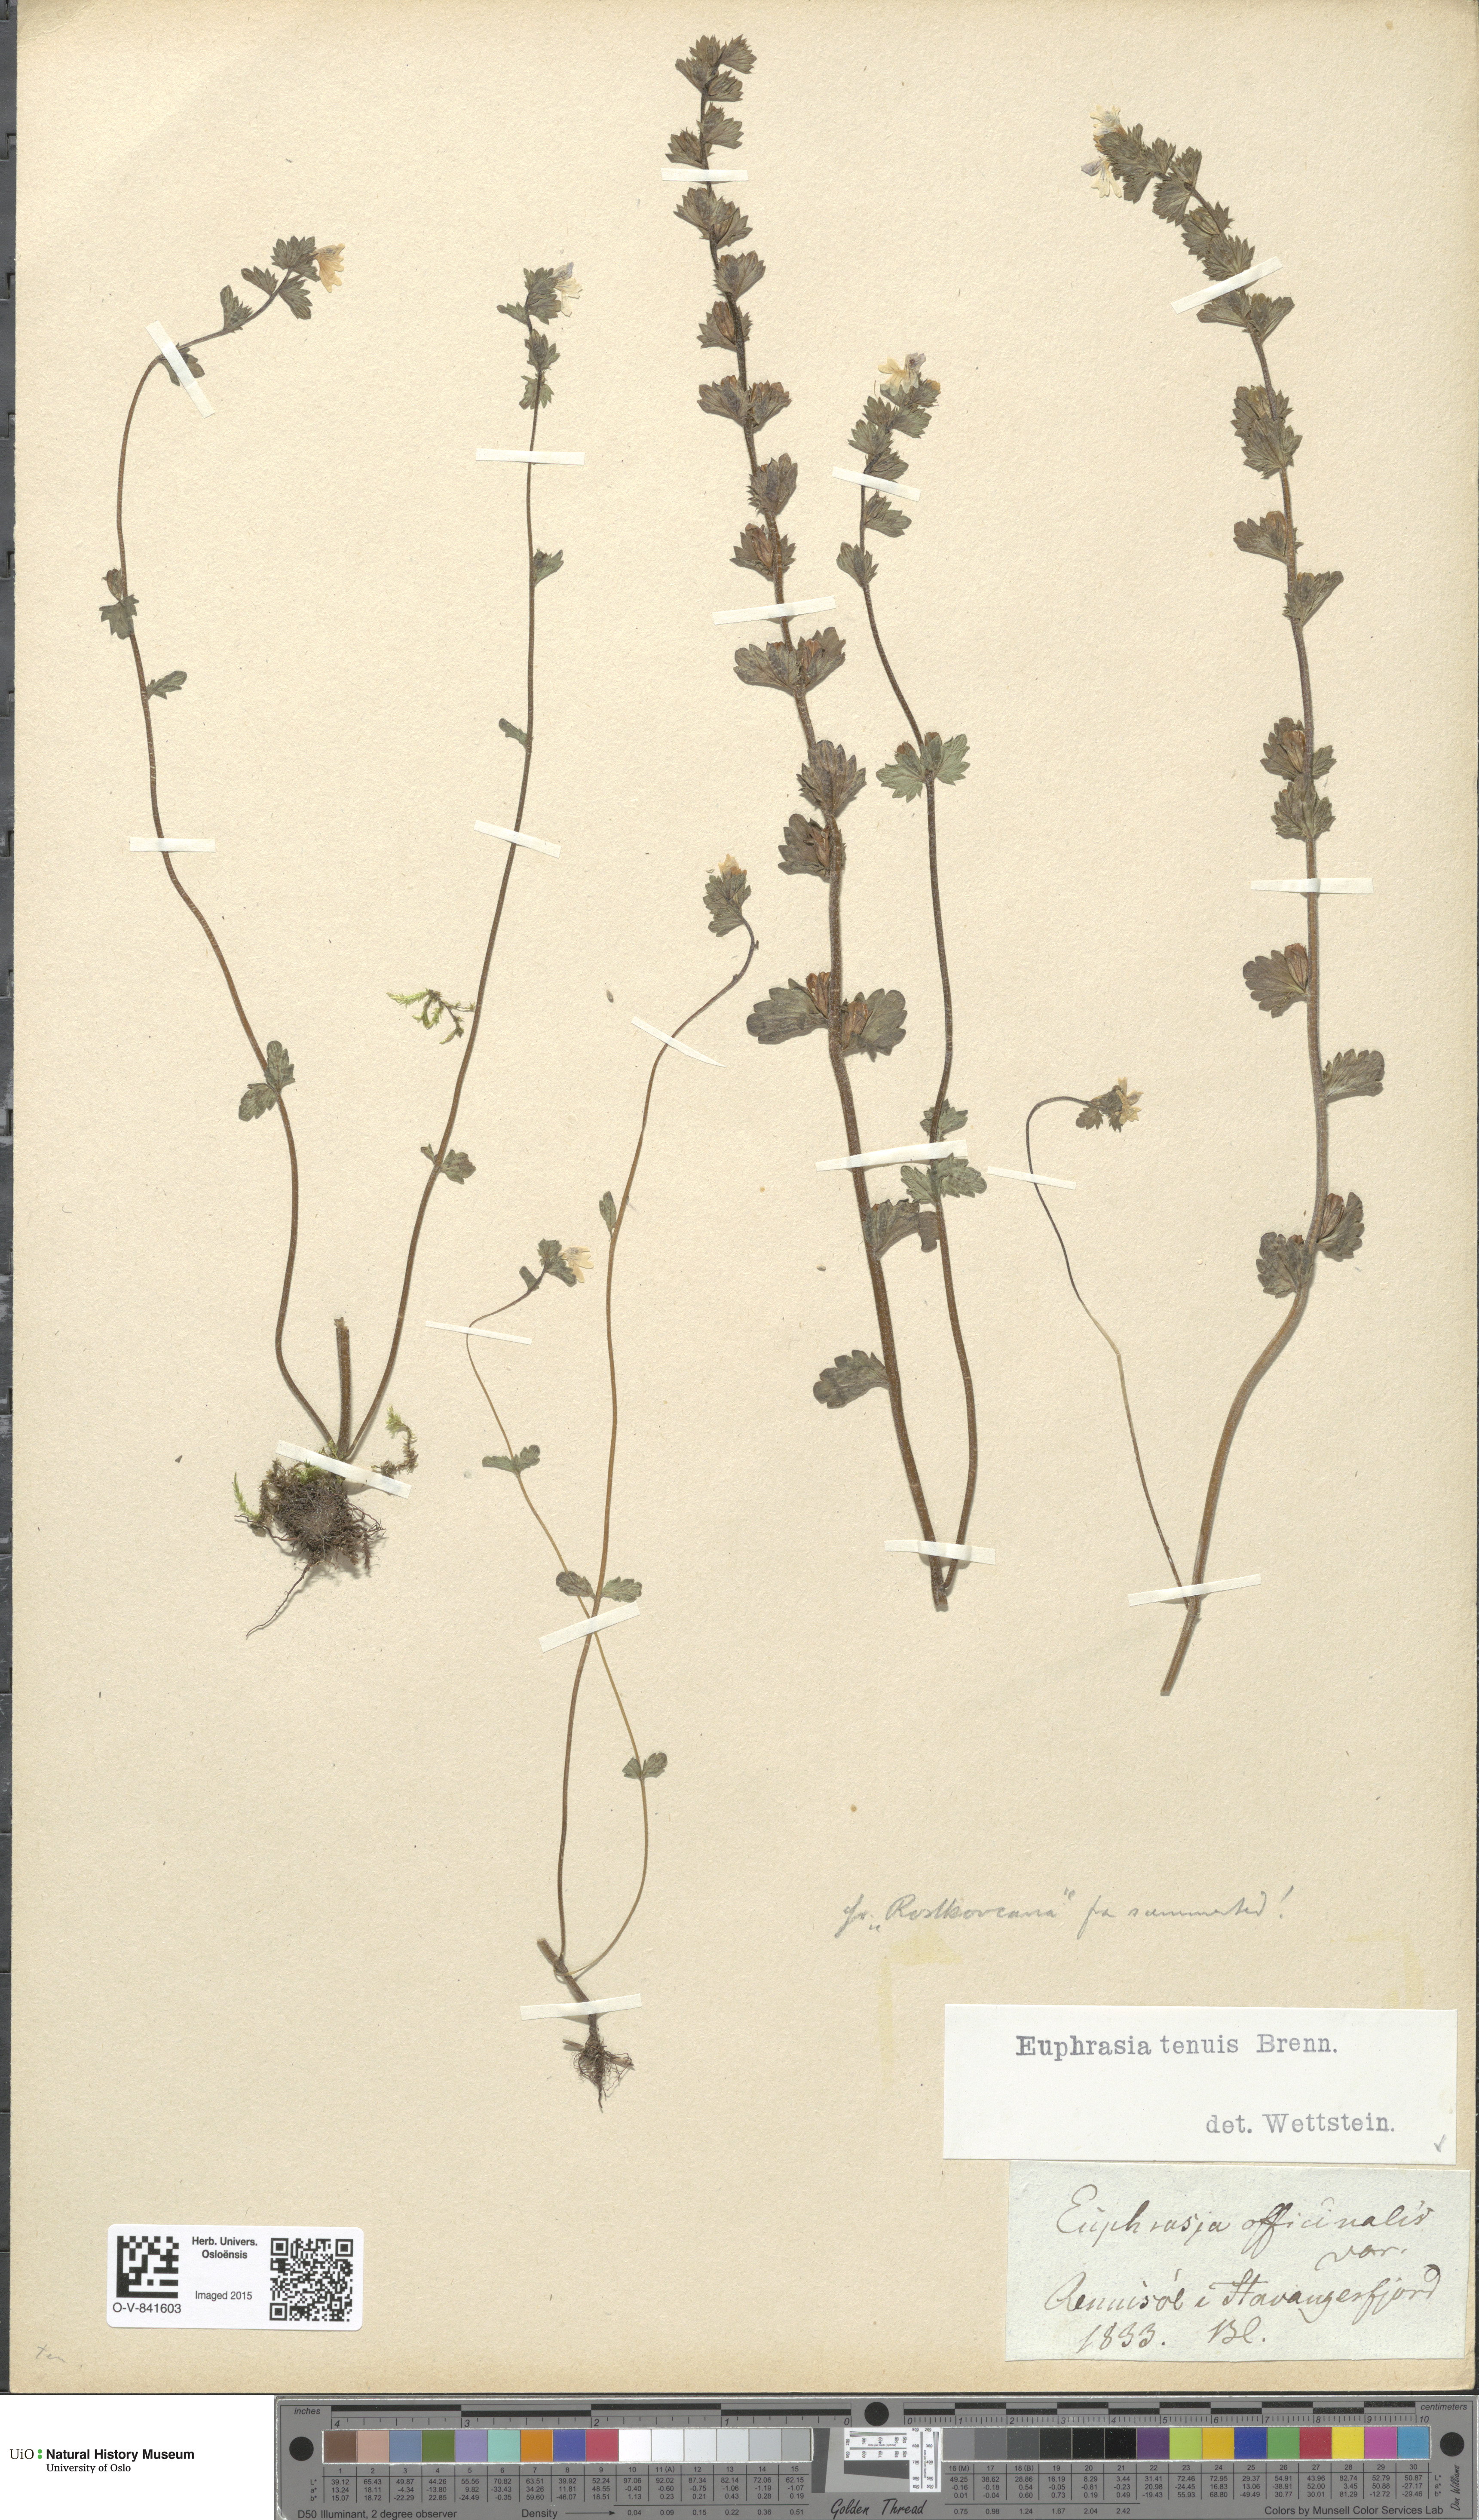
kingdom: Plantae
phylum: Tracheophyta
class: Magnoliopsida
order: Lamiales
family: Orobanchaceae
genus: Euphrasia
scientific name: Euphrasia vernalis
